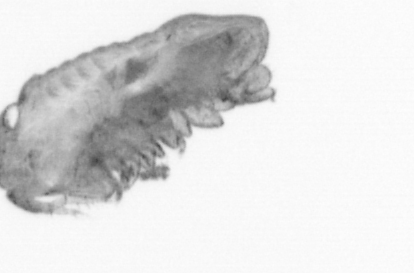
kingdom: Animalia
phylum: Arthropoda
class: Copepoda
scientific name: Copepoda
